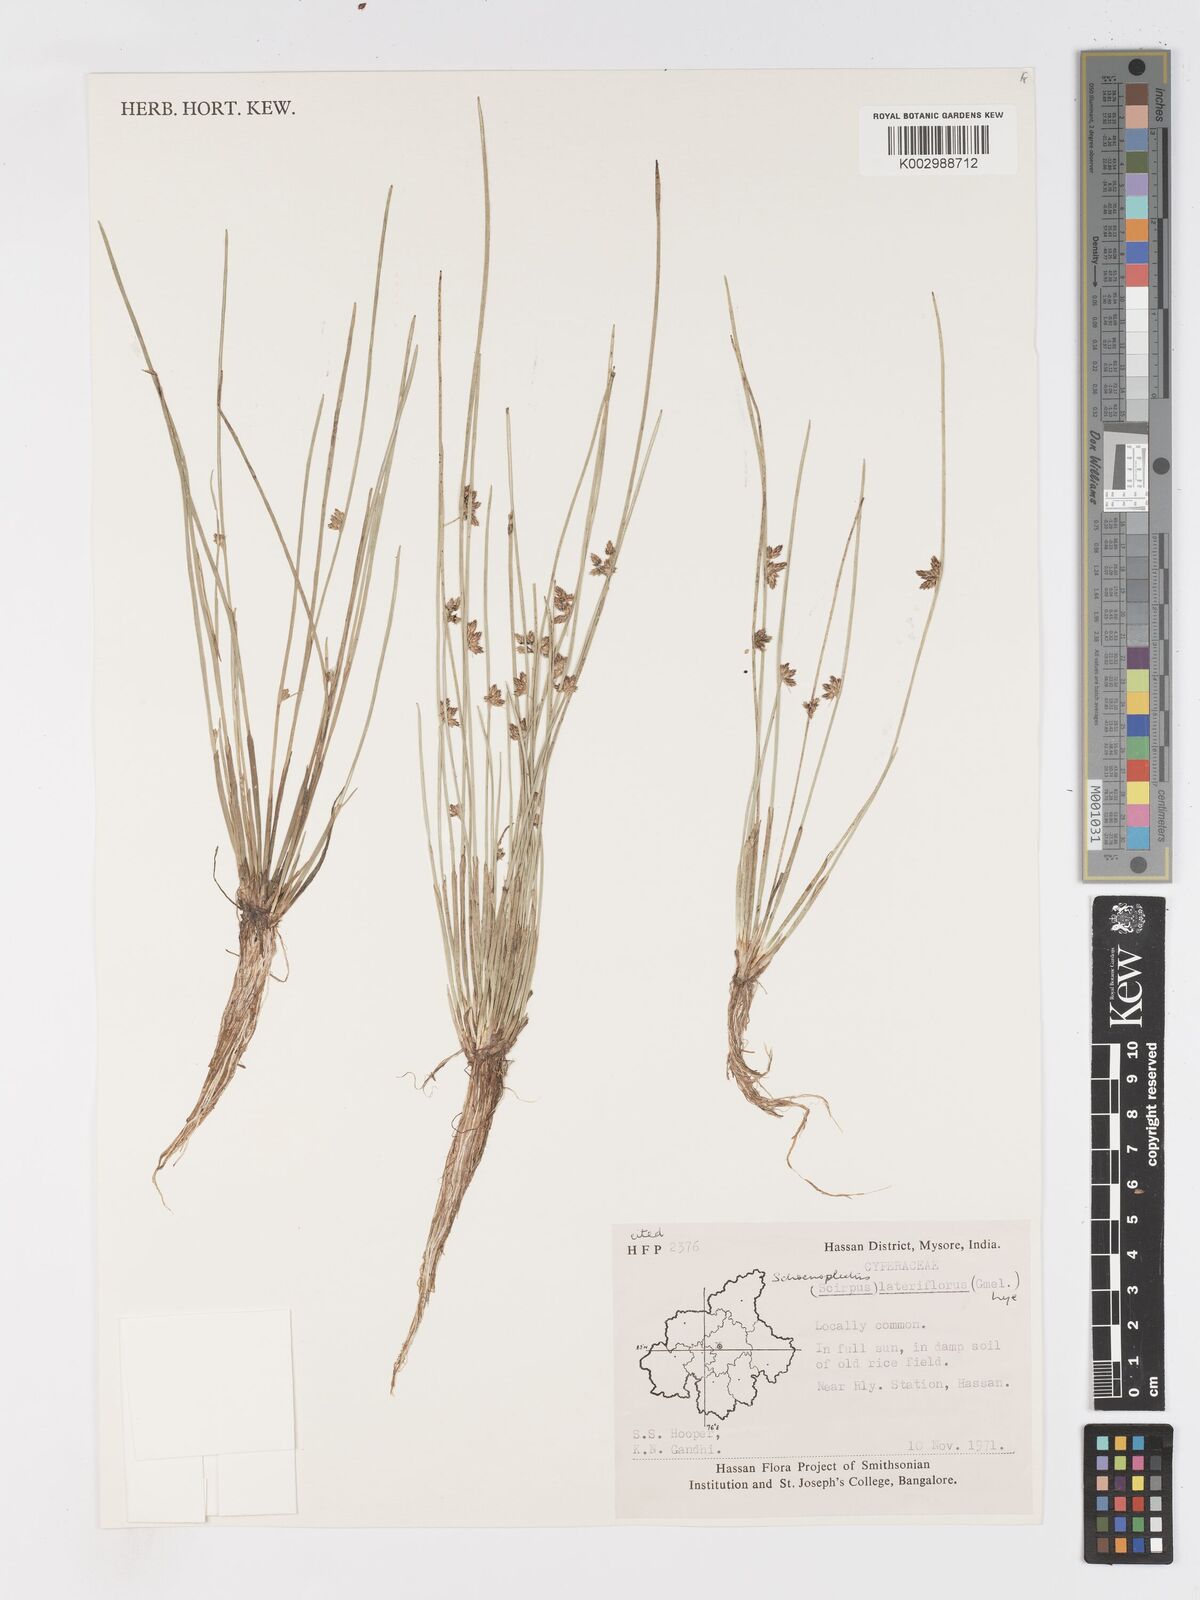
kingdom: Plantae
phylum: Tracheophyta
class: Liliopsida
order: Poales
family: Cyperaceae
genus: Schoenoplectiella
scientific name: Schoenoplectiella lateriflora
